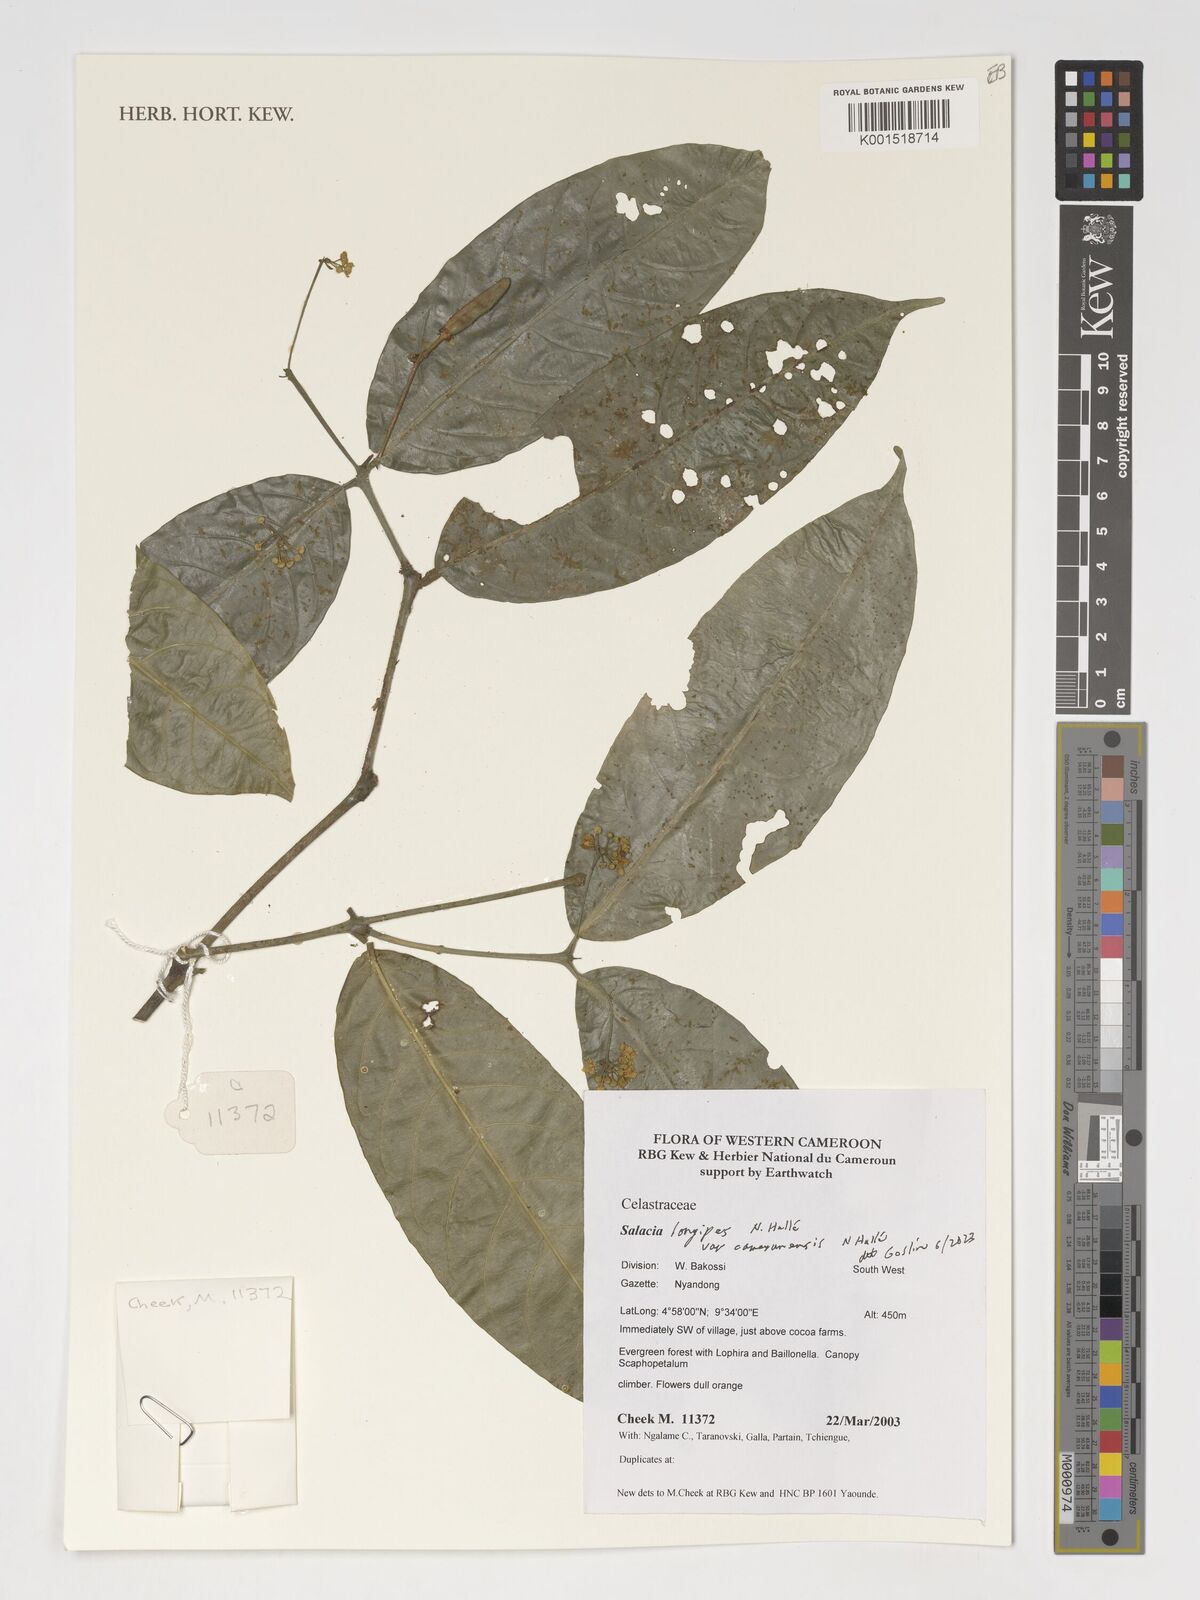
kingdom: Plantae
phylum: Tracheophyta
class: Magnoliopsida
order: Celastrales
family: Celastraceae
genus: Salacia
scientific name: Salacia longipes
